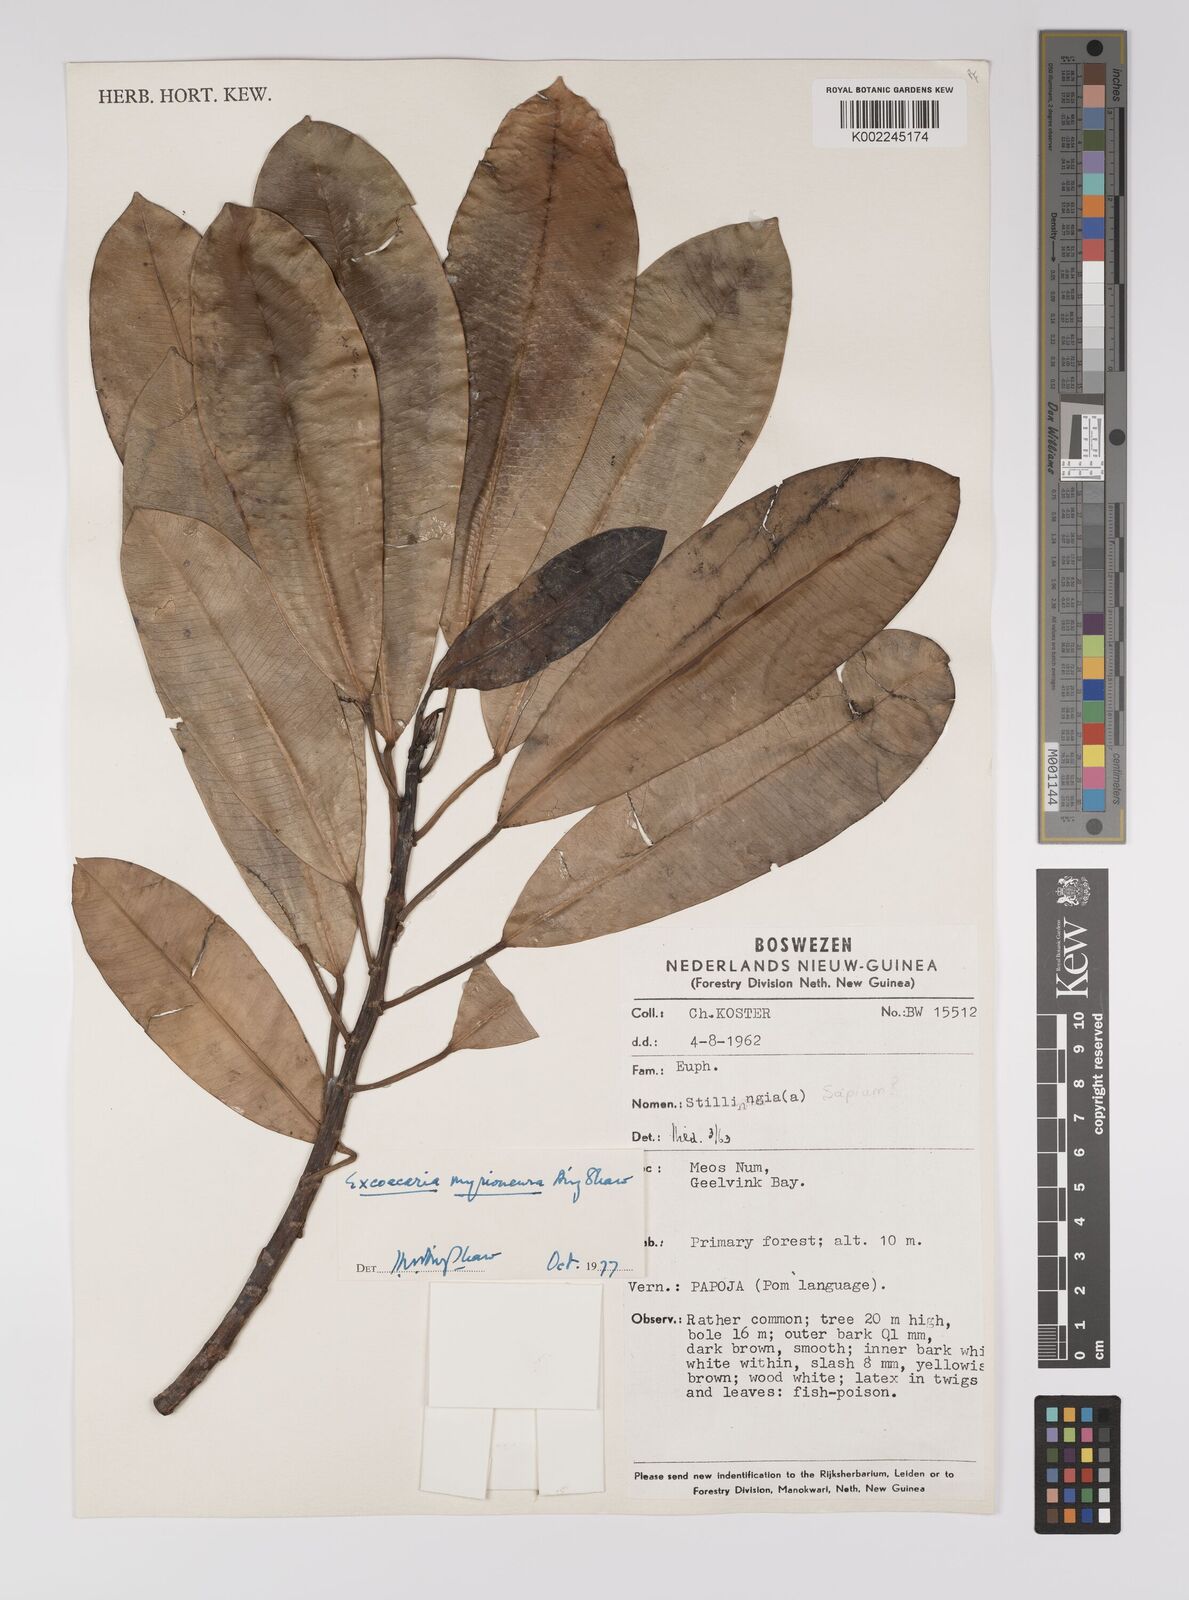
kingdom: Plantae
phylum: Tracheophyta
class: Magnoliopsida
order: Malpighiales
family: Euphorbiaceae
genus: Excoecaria
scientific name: Excoecaria myrioneura
